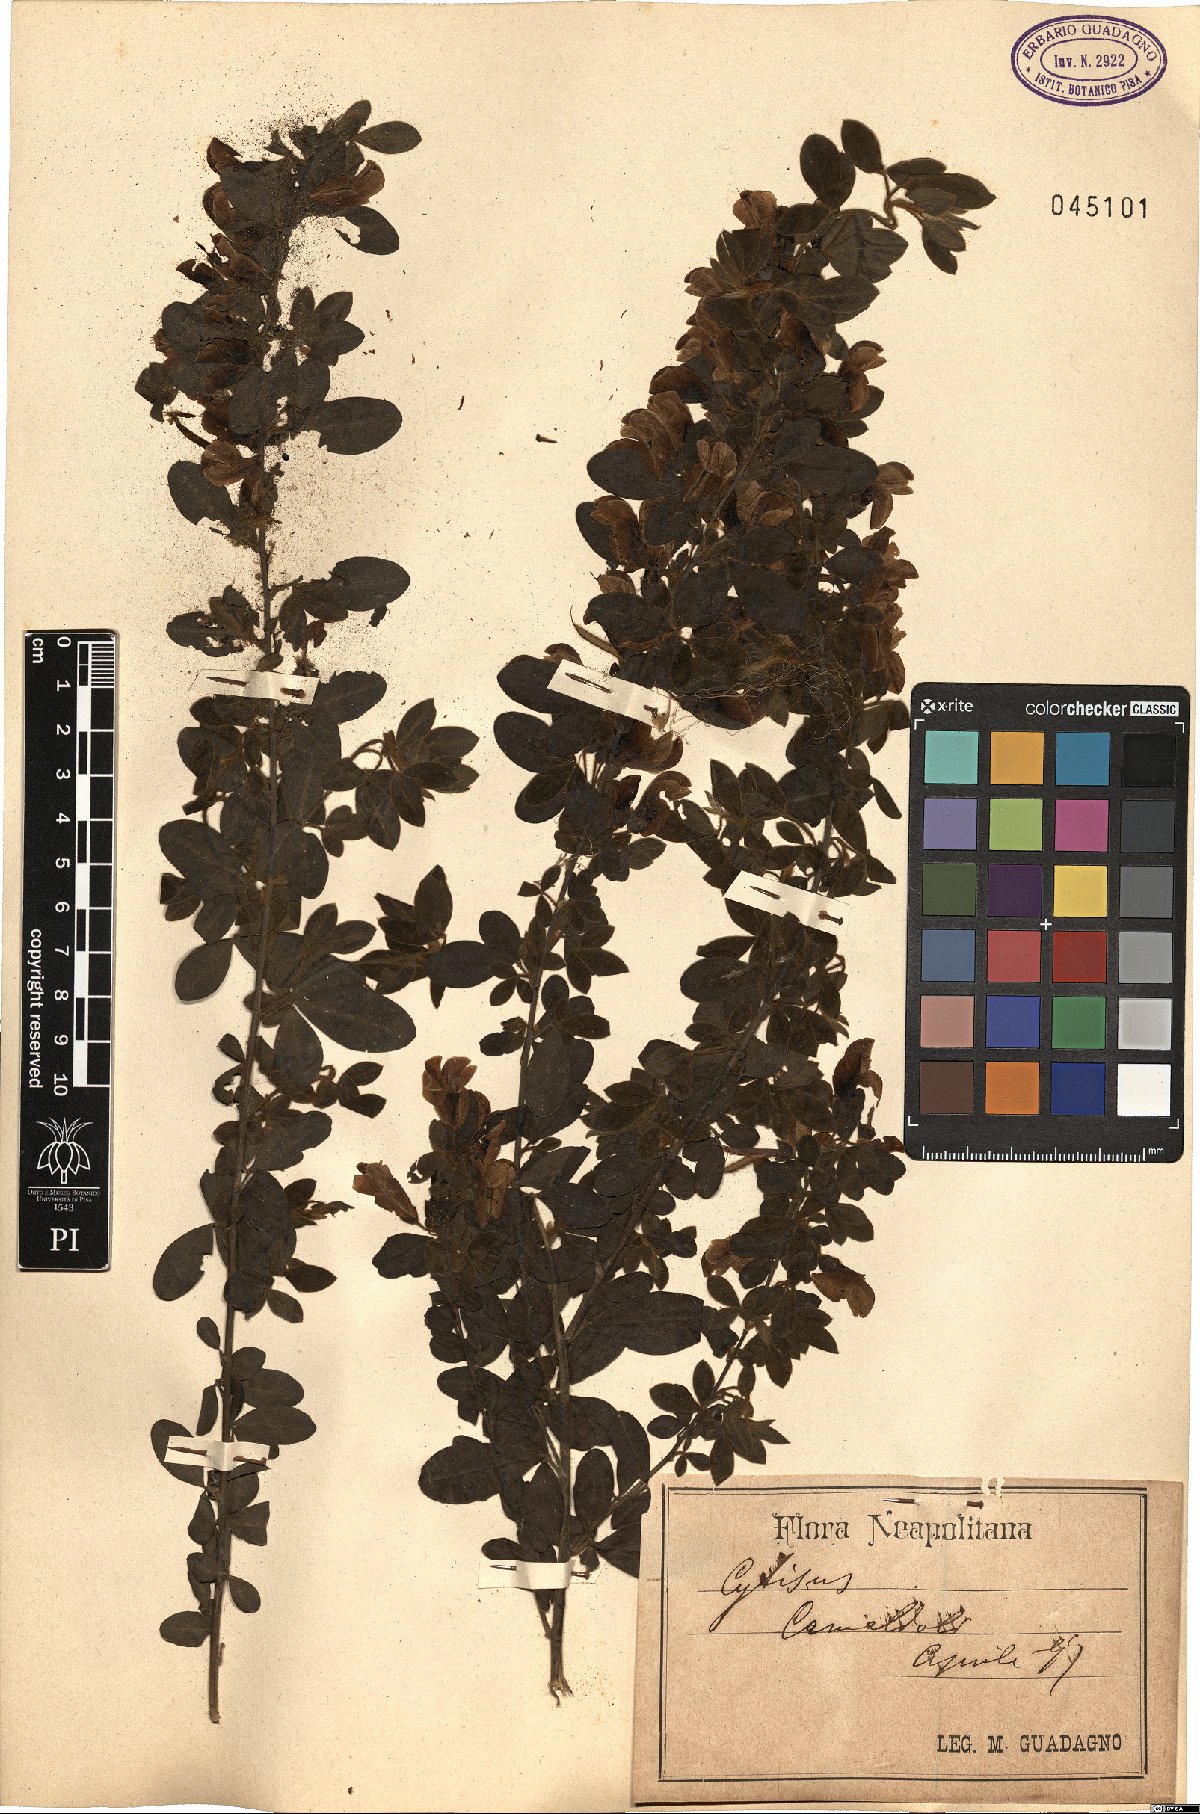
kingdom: Plantae
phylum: Tracheophyta
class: Magnoliopsida
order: Fabales
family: Fabaceae
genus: Cytisus
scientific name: Cytisus
